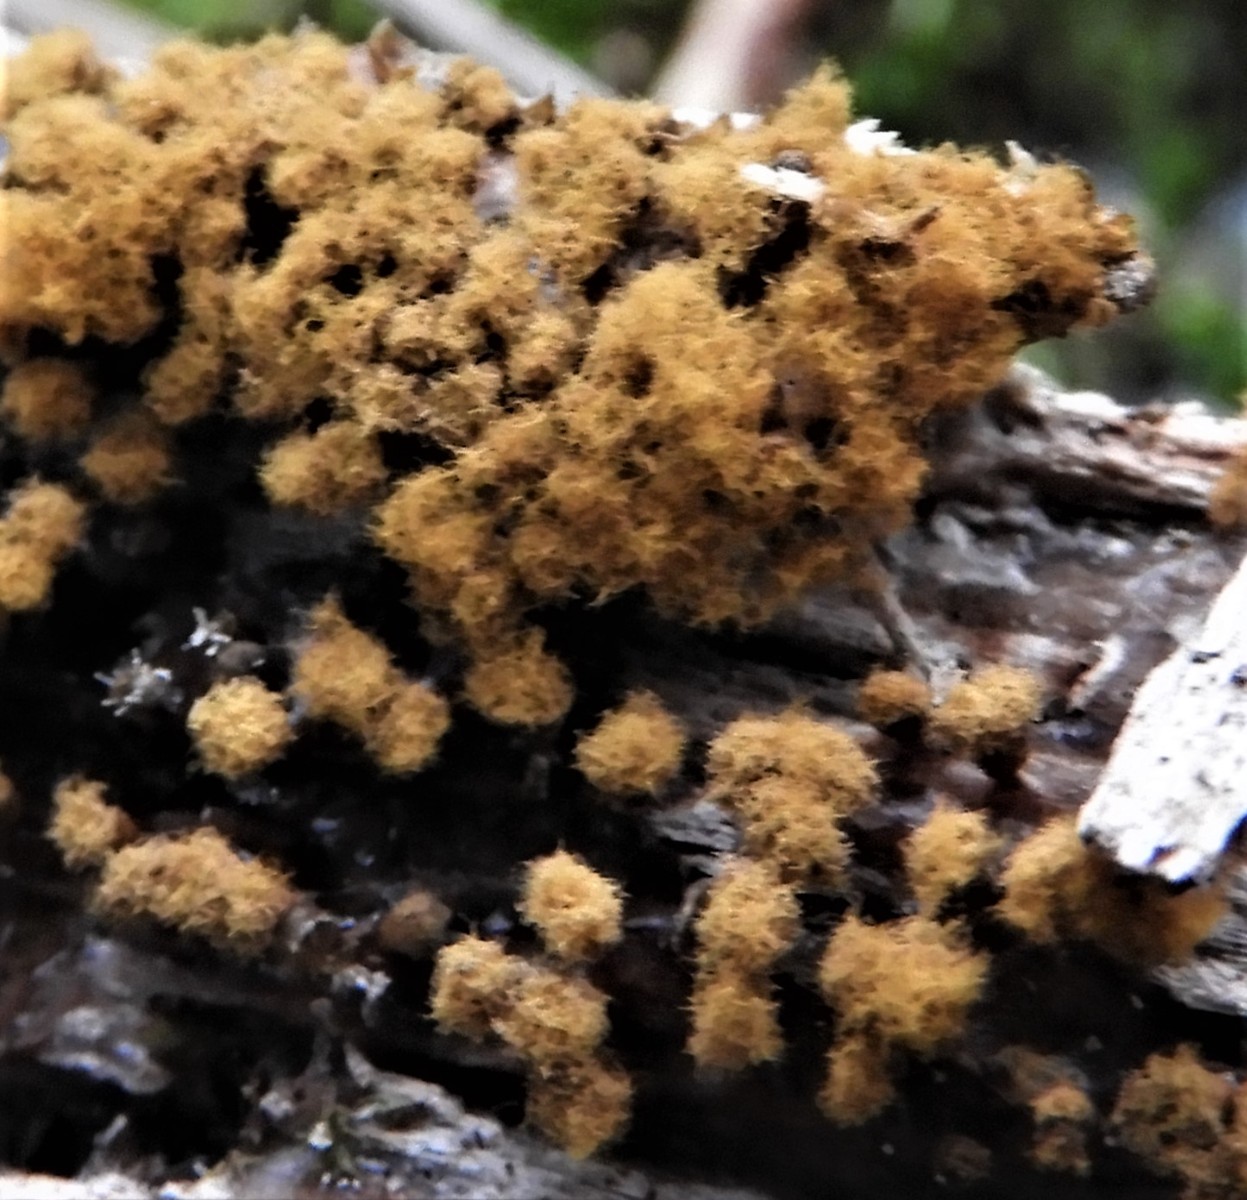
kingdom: Protozoa
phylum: Mycetozoa
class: Myxomycetes
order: Trichiales
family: Trichiaceae
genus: Trichia
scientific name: Trichia varia
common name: foranderlig hårbold
